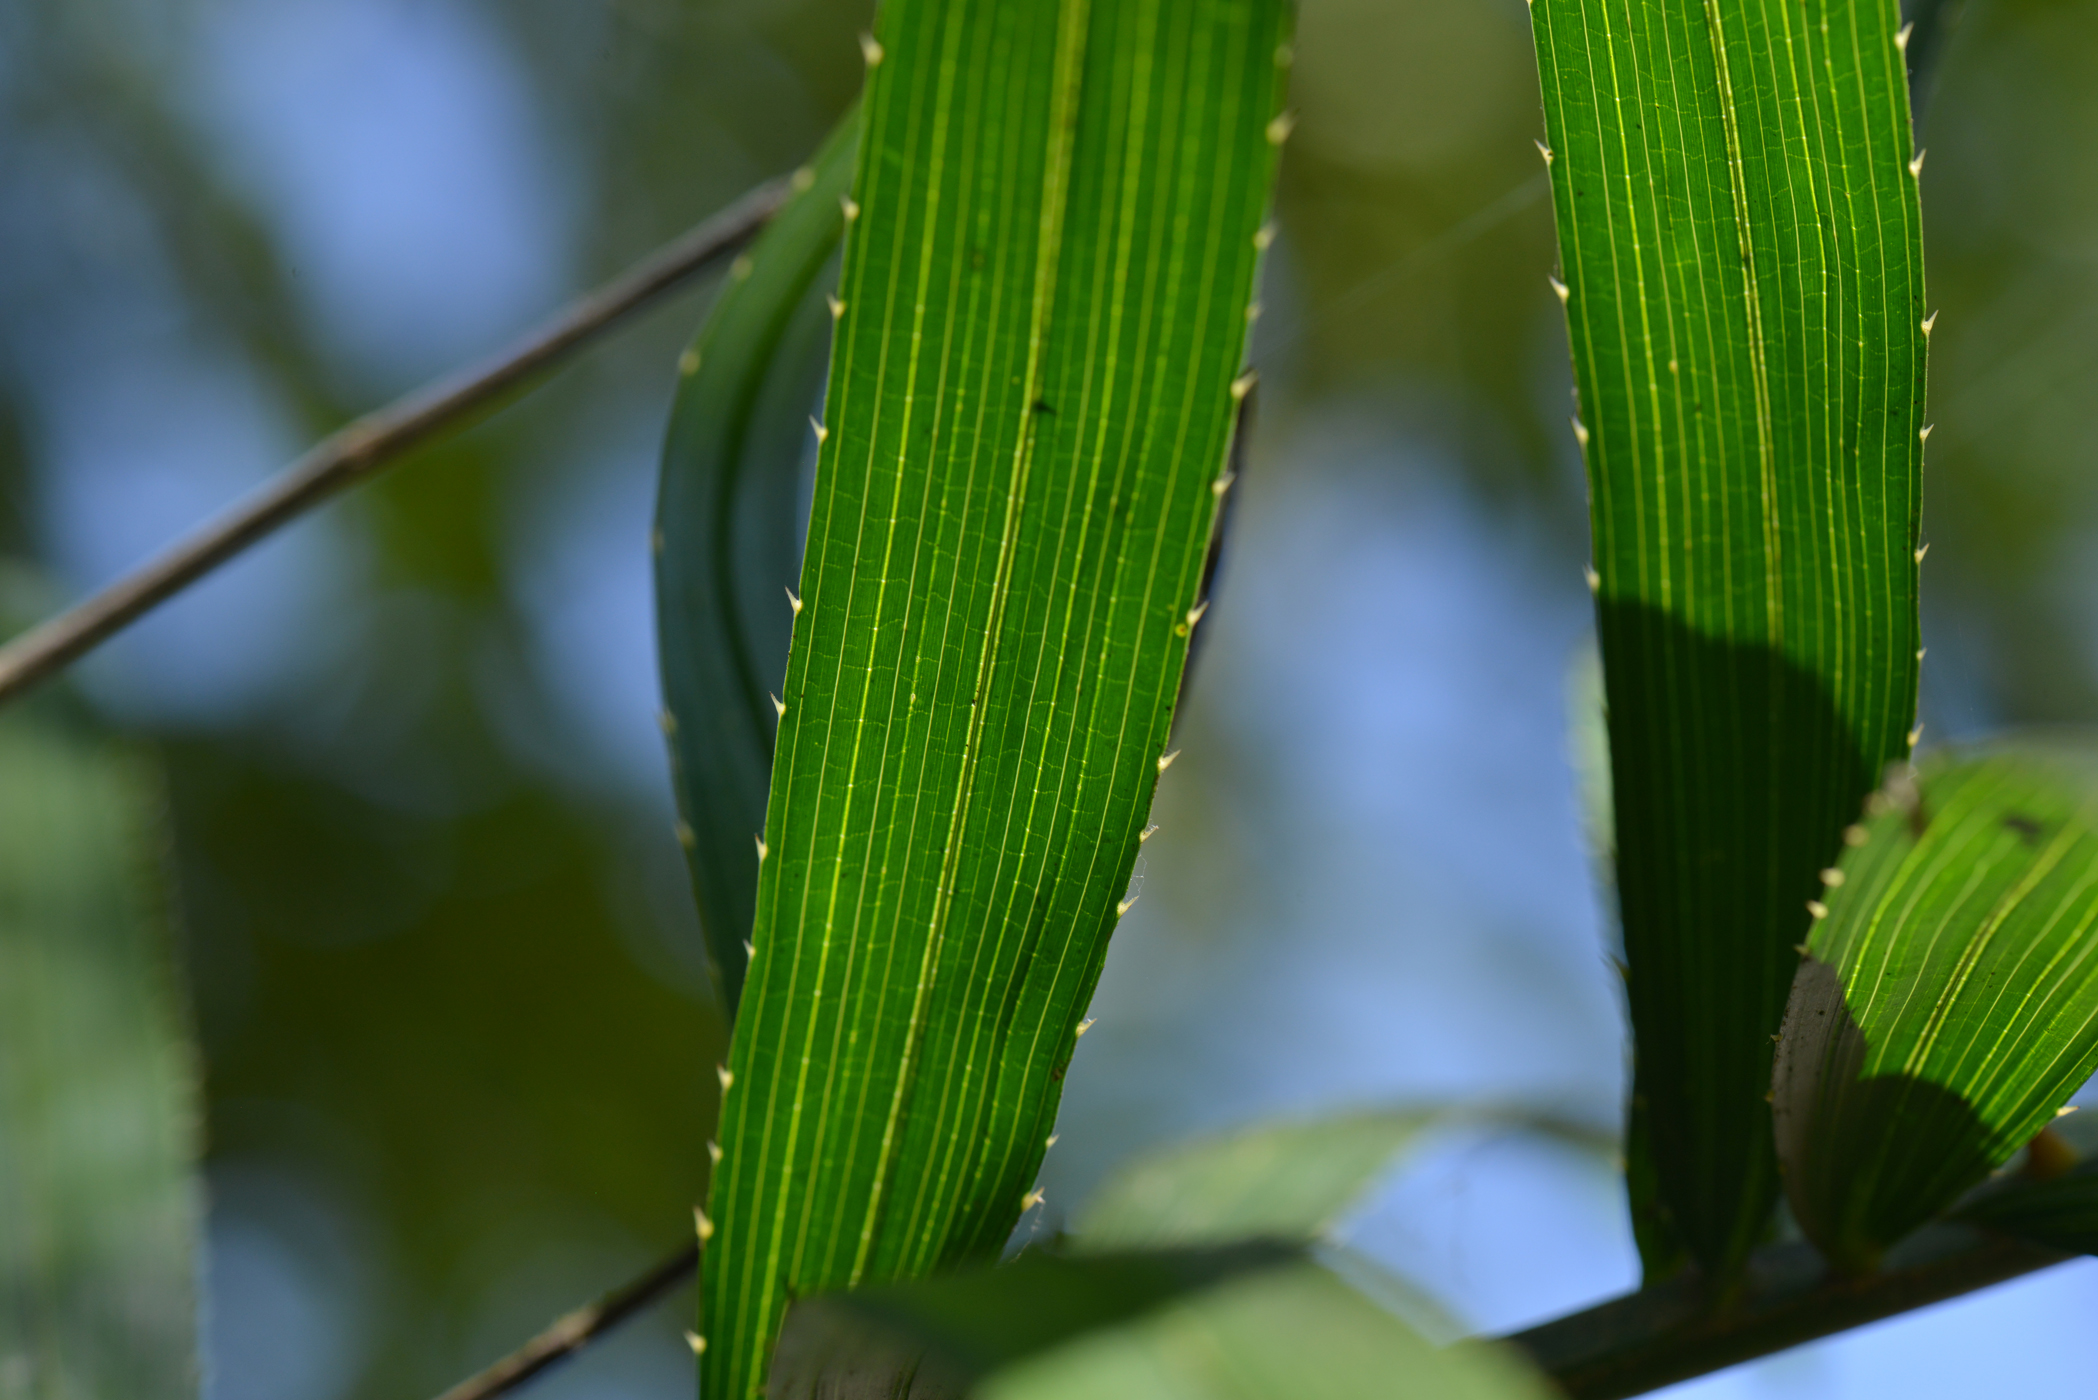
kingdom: Plantae
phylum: Tracheophyta
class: Liliopsida
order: Arecales
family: Arecaceae
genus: Calamus
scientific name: Calamus
